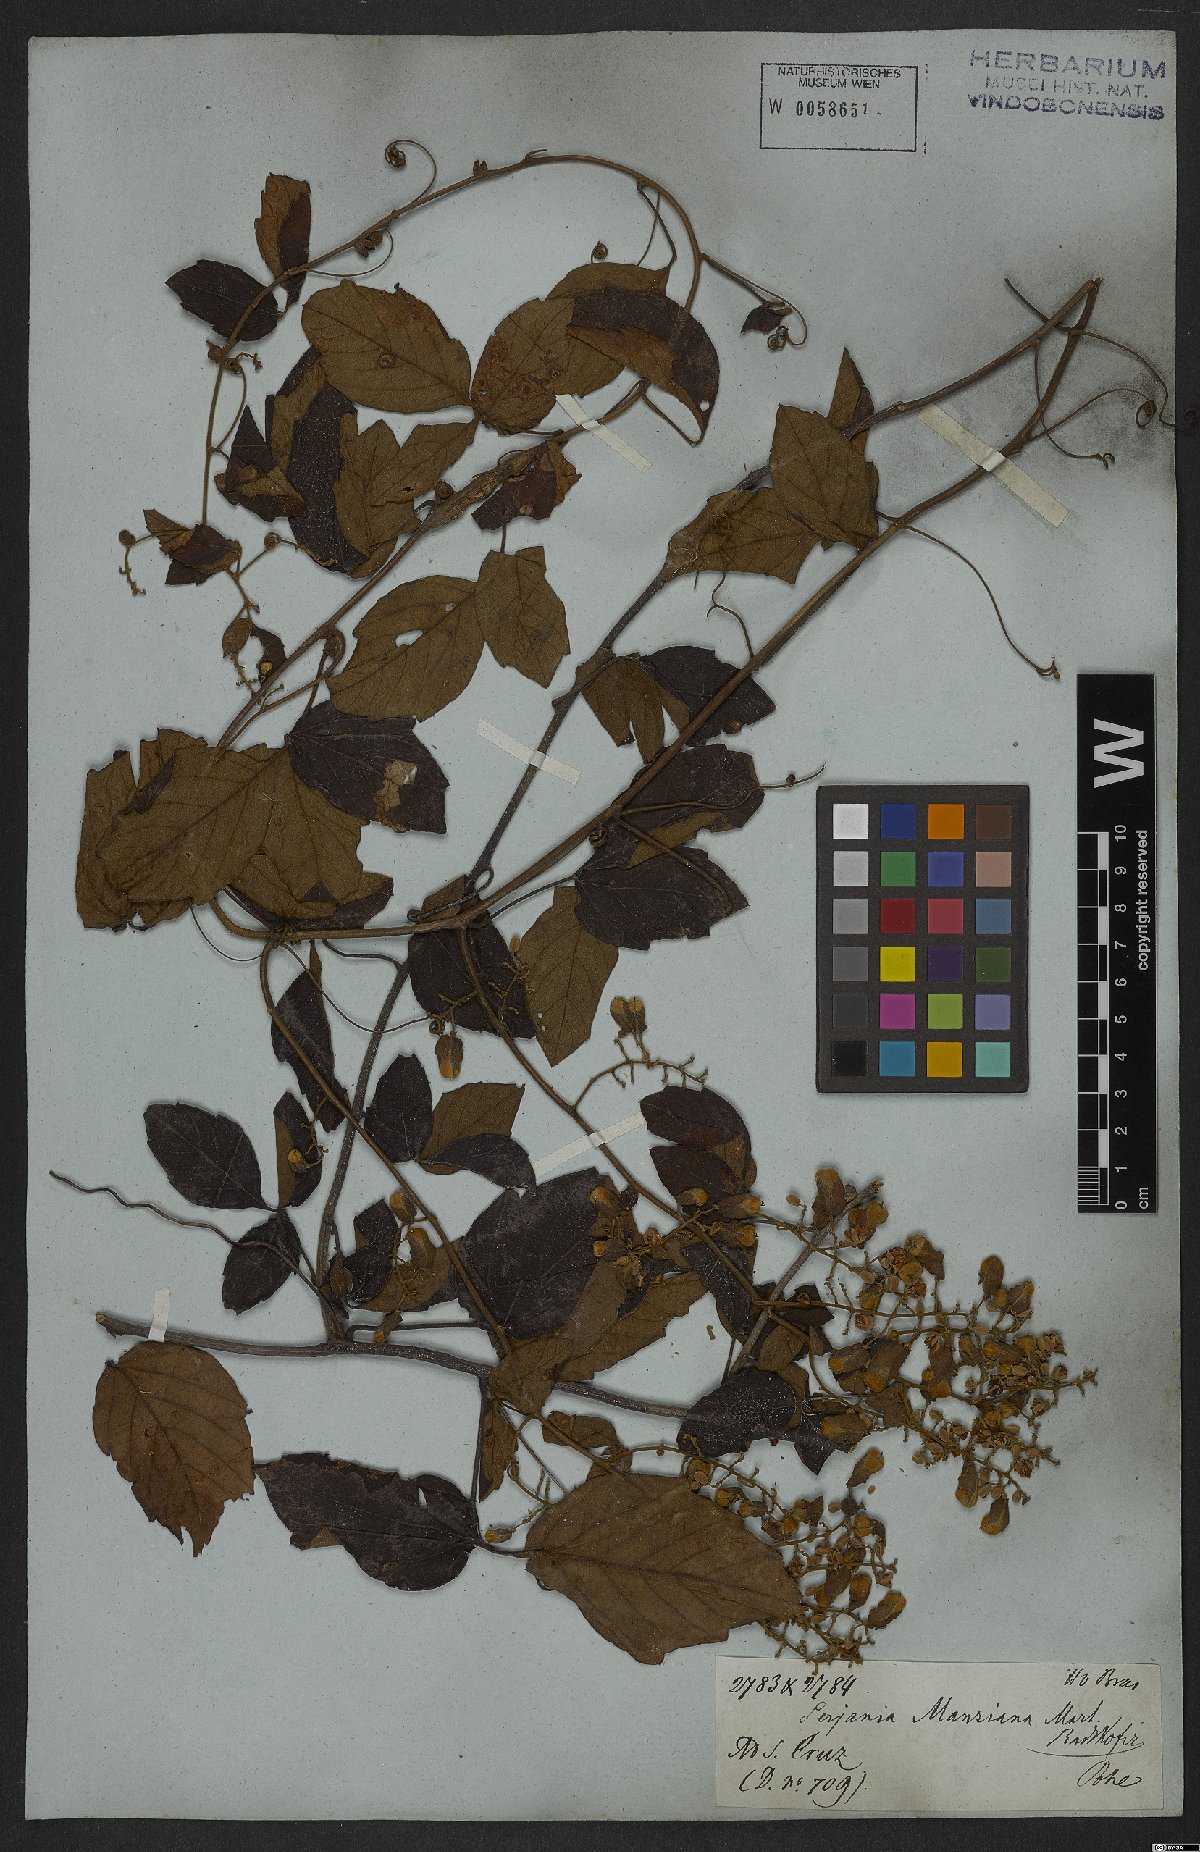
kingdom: Plantae
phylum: Tracheophyta
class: Magnoliopsida
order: Sapindales
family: Sapindaceae
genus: Serjania
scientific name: Serjania mansiana
